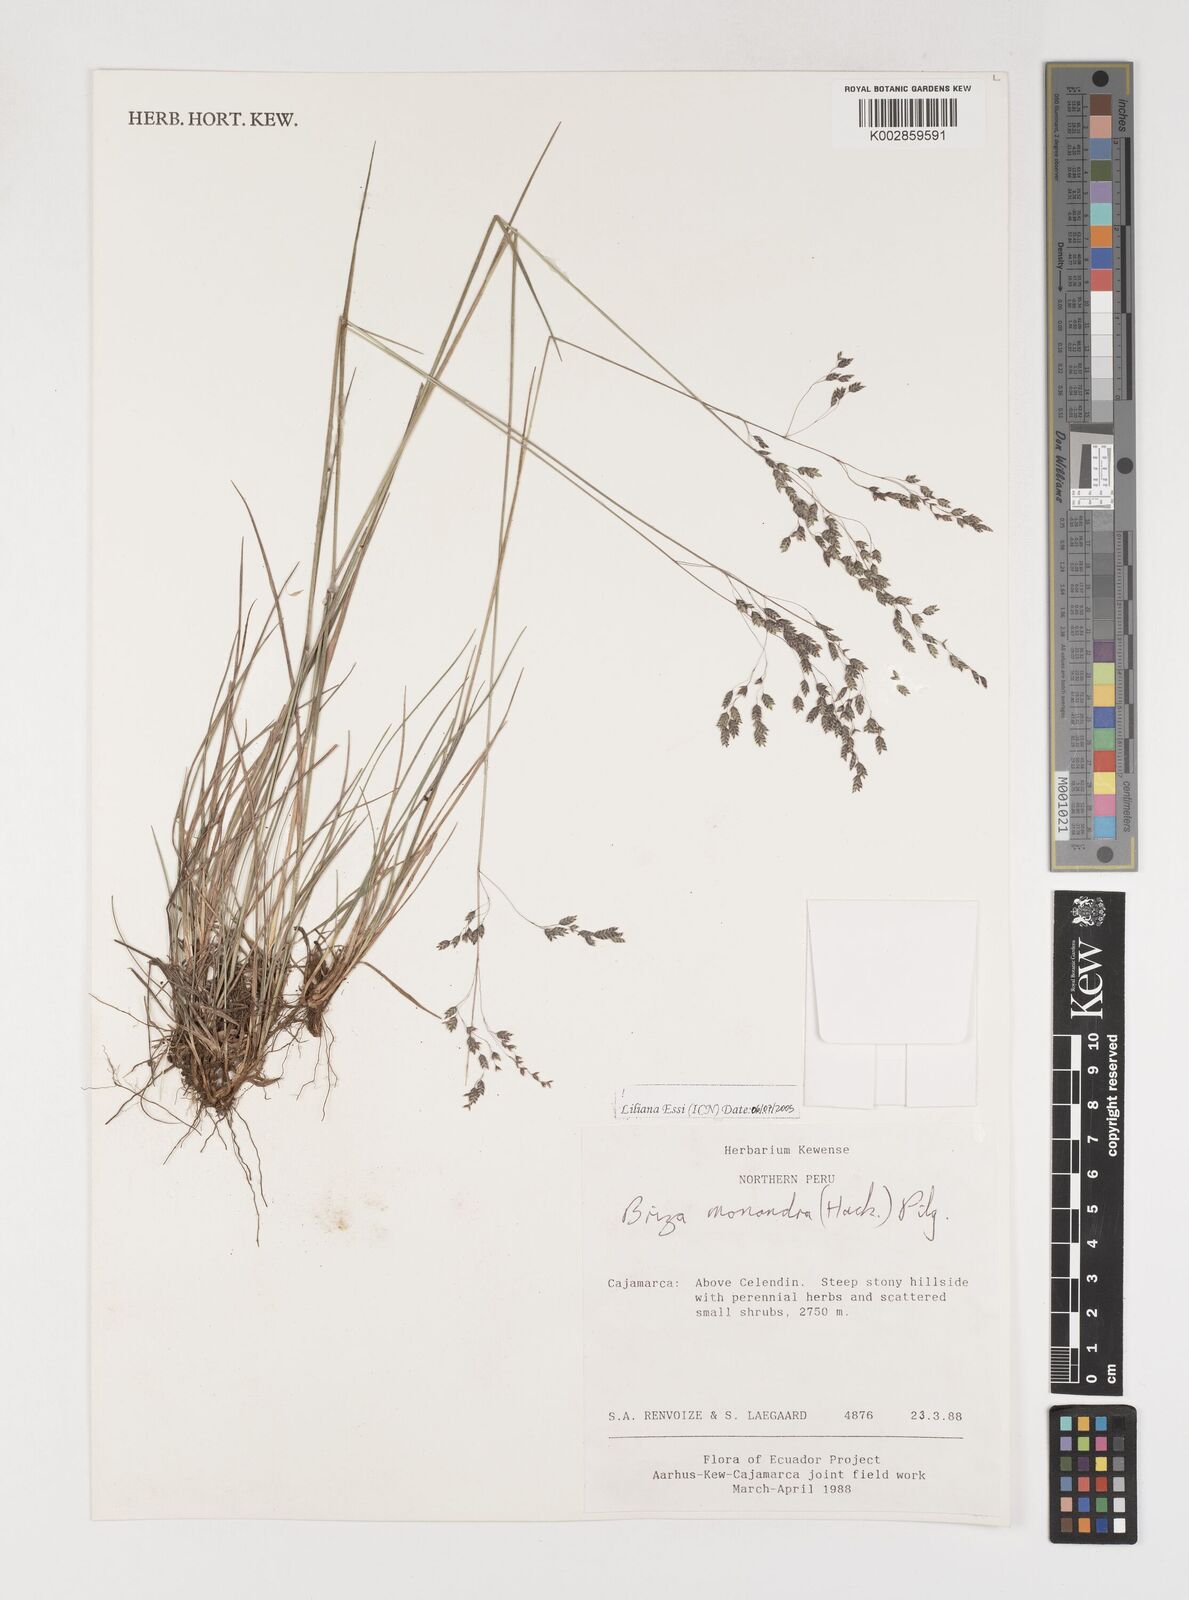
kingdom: Plantae
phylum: Tracheophyta
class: Liliopsida
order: Poales
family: Poaceae
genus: Poidium
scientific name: Poidium monandrum
